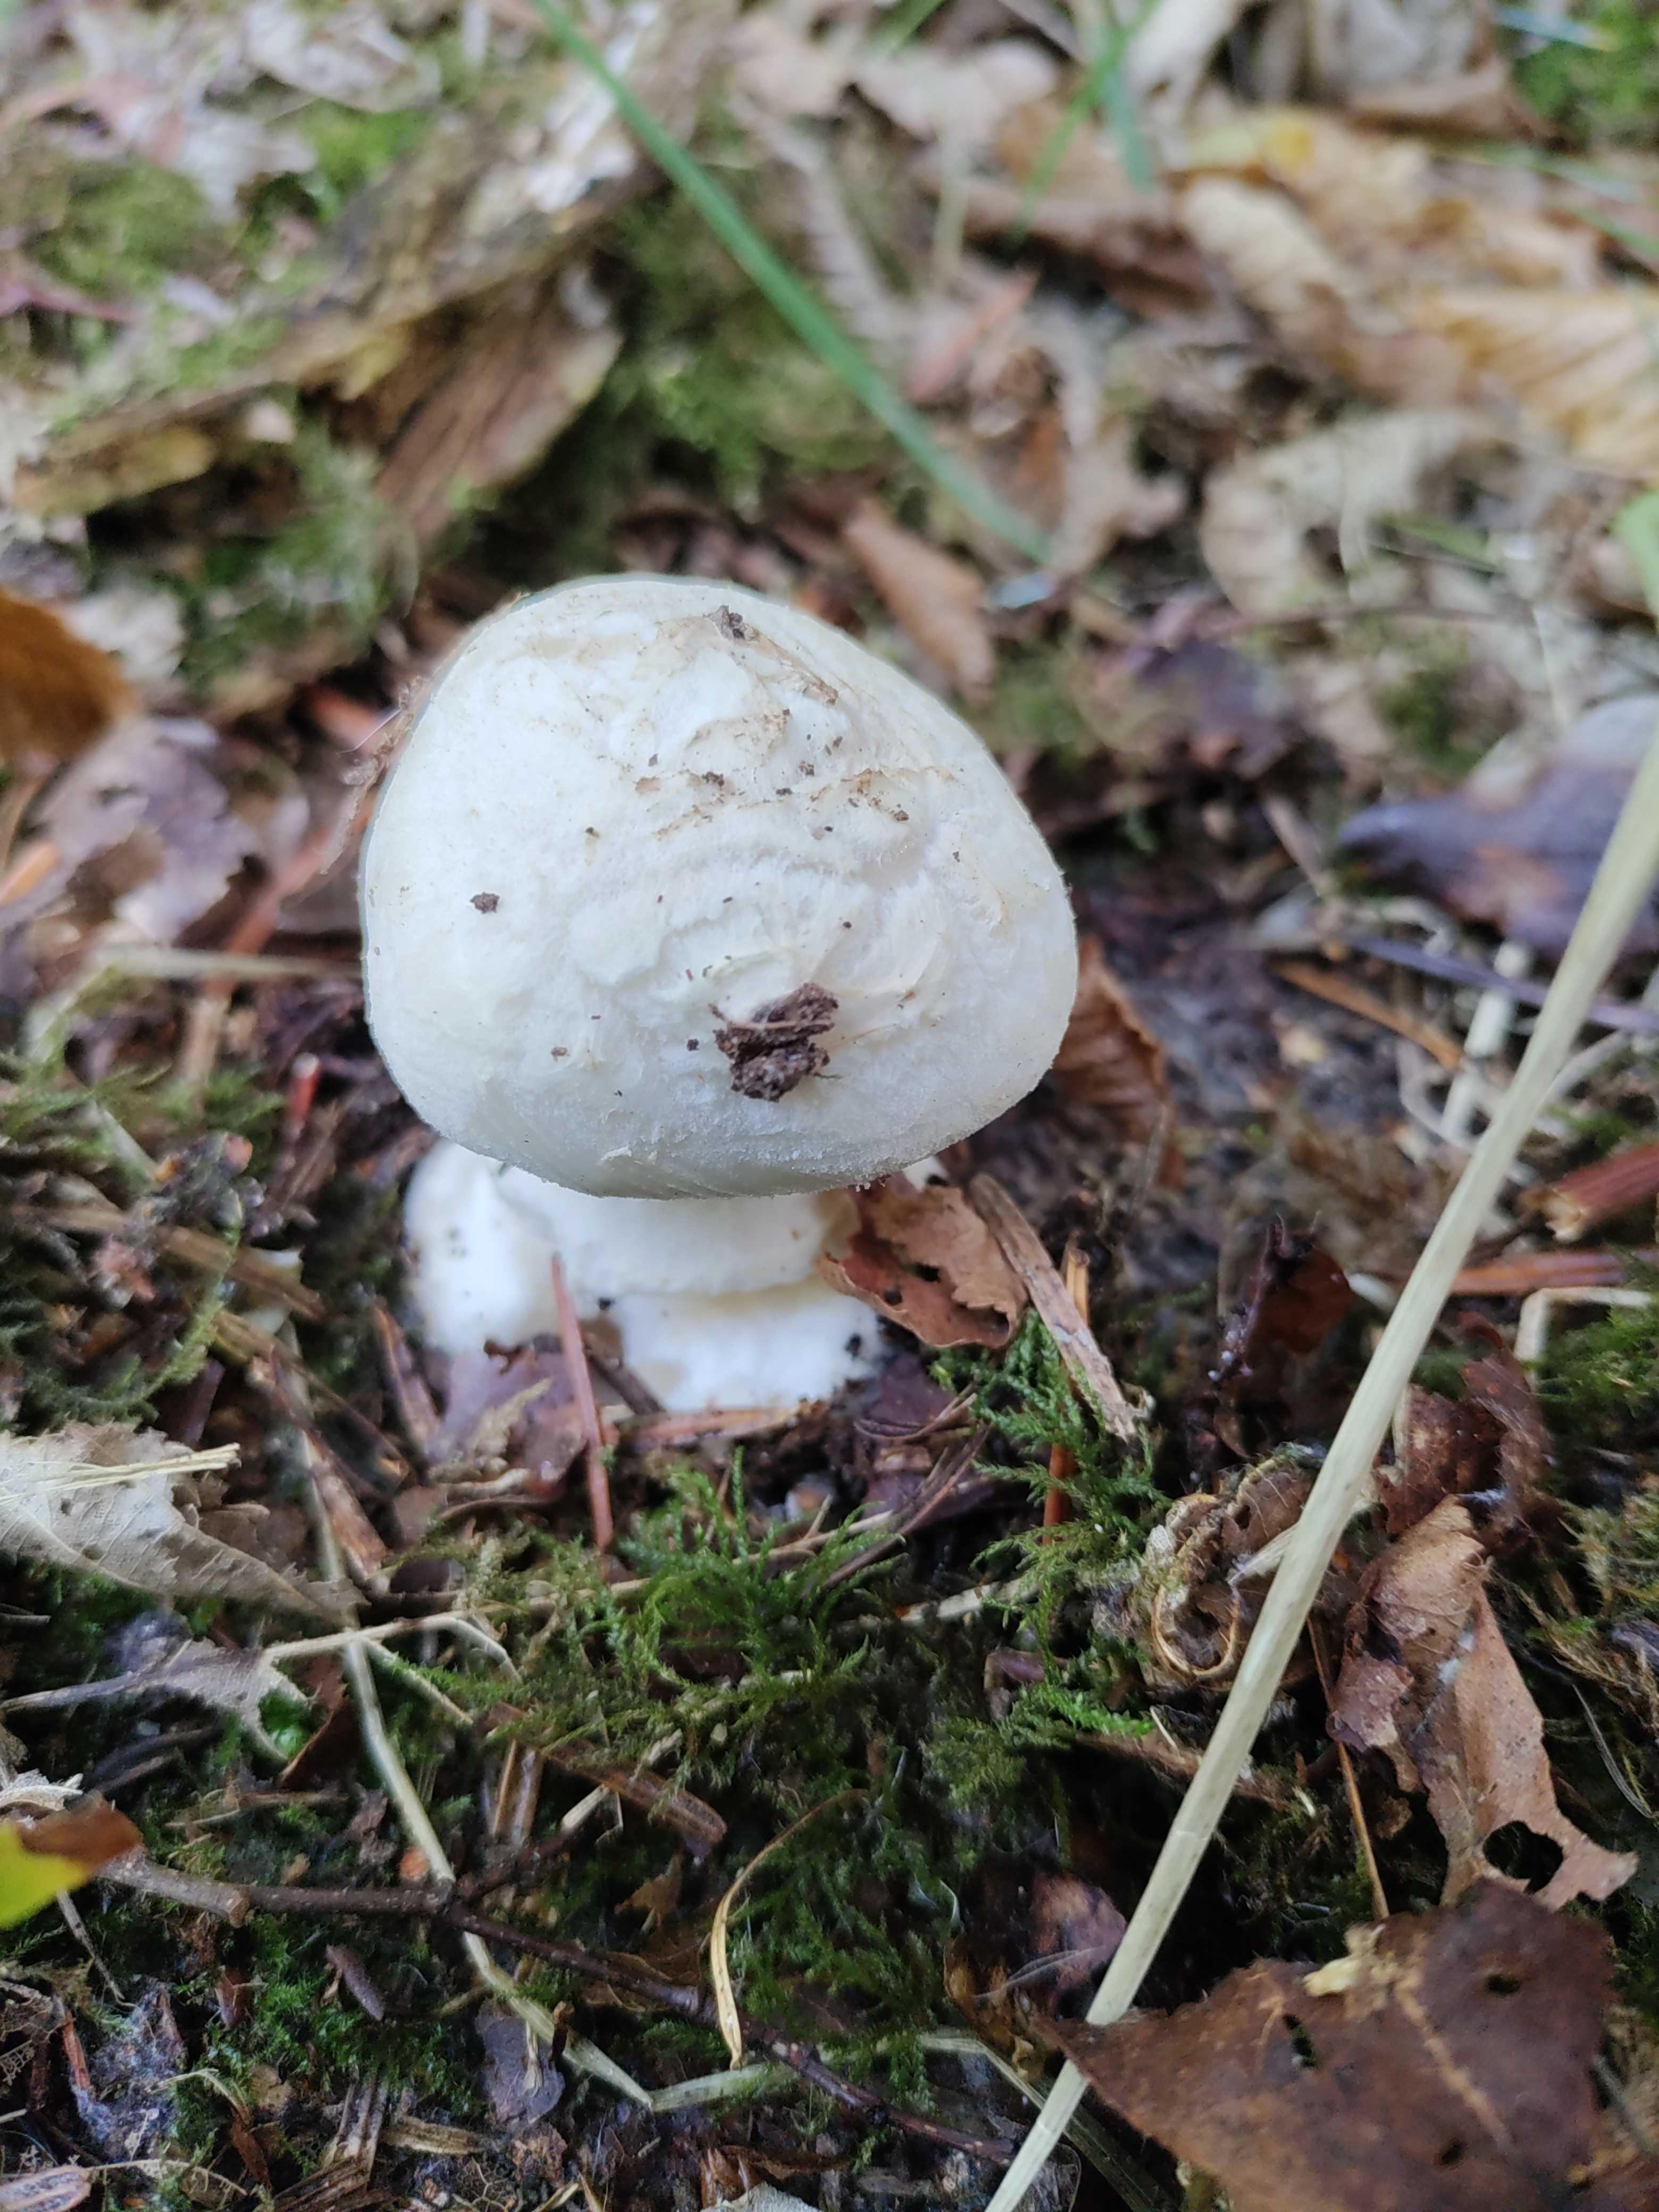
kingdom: Fungi
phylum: Basidiomycota
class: Agaricomycetes
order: Agaricales
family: Amanitaceae
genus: Amanita
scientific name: Amanita
